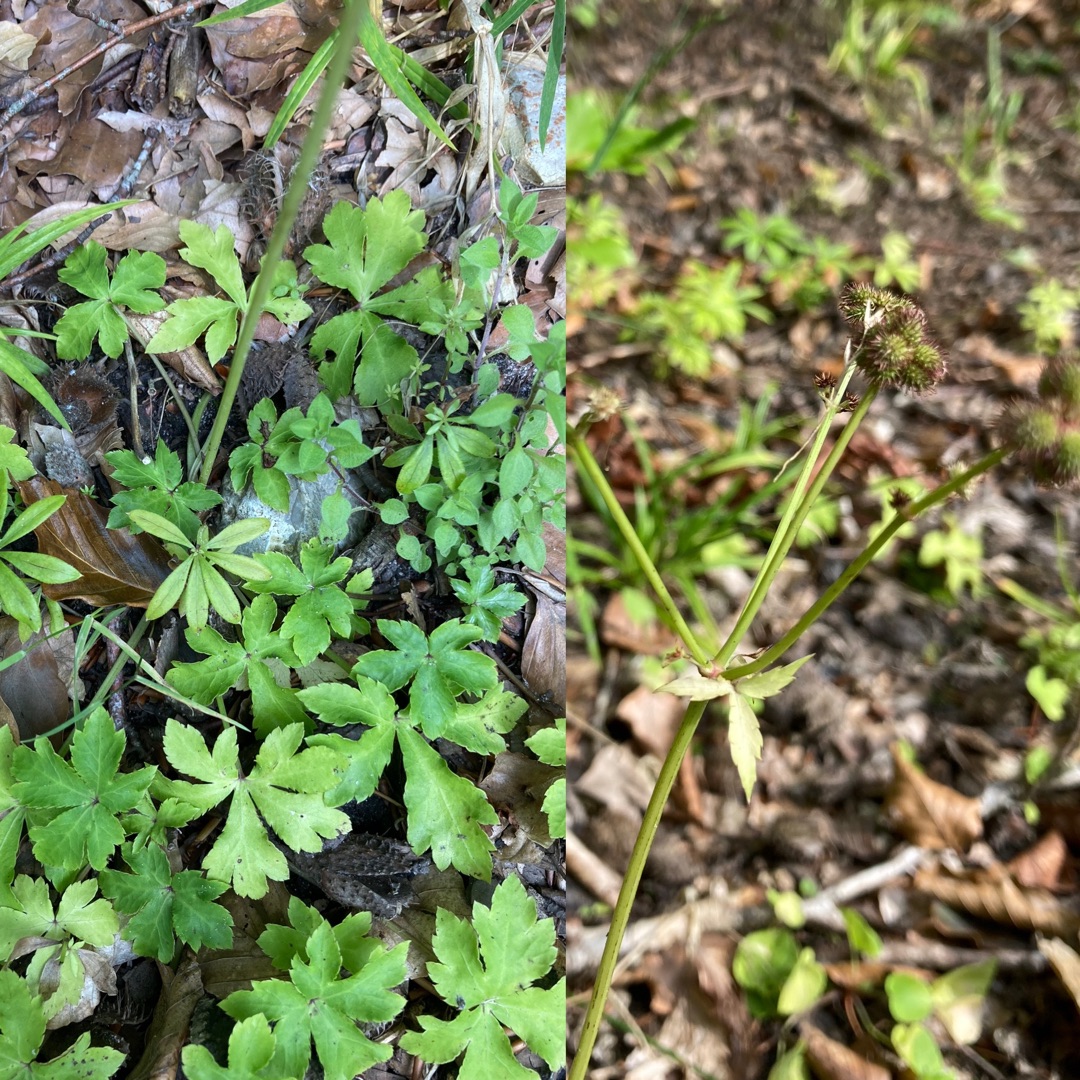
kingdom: Plantae
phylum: Tracheophyta
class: Magnoliopsida
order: Apiales
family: Apiaceae
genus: Sanicula
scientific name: Sanicula europaea
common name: Sanikel
